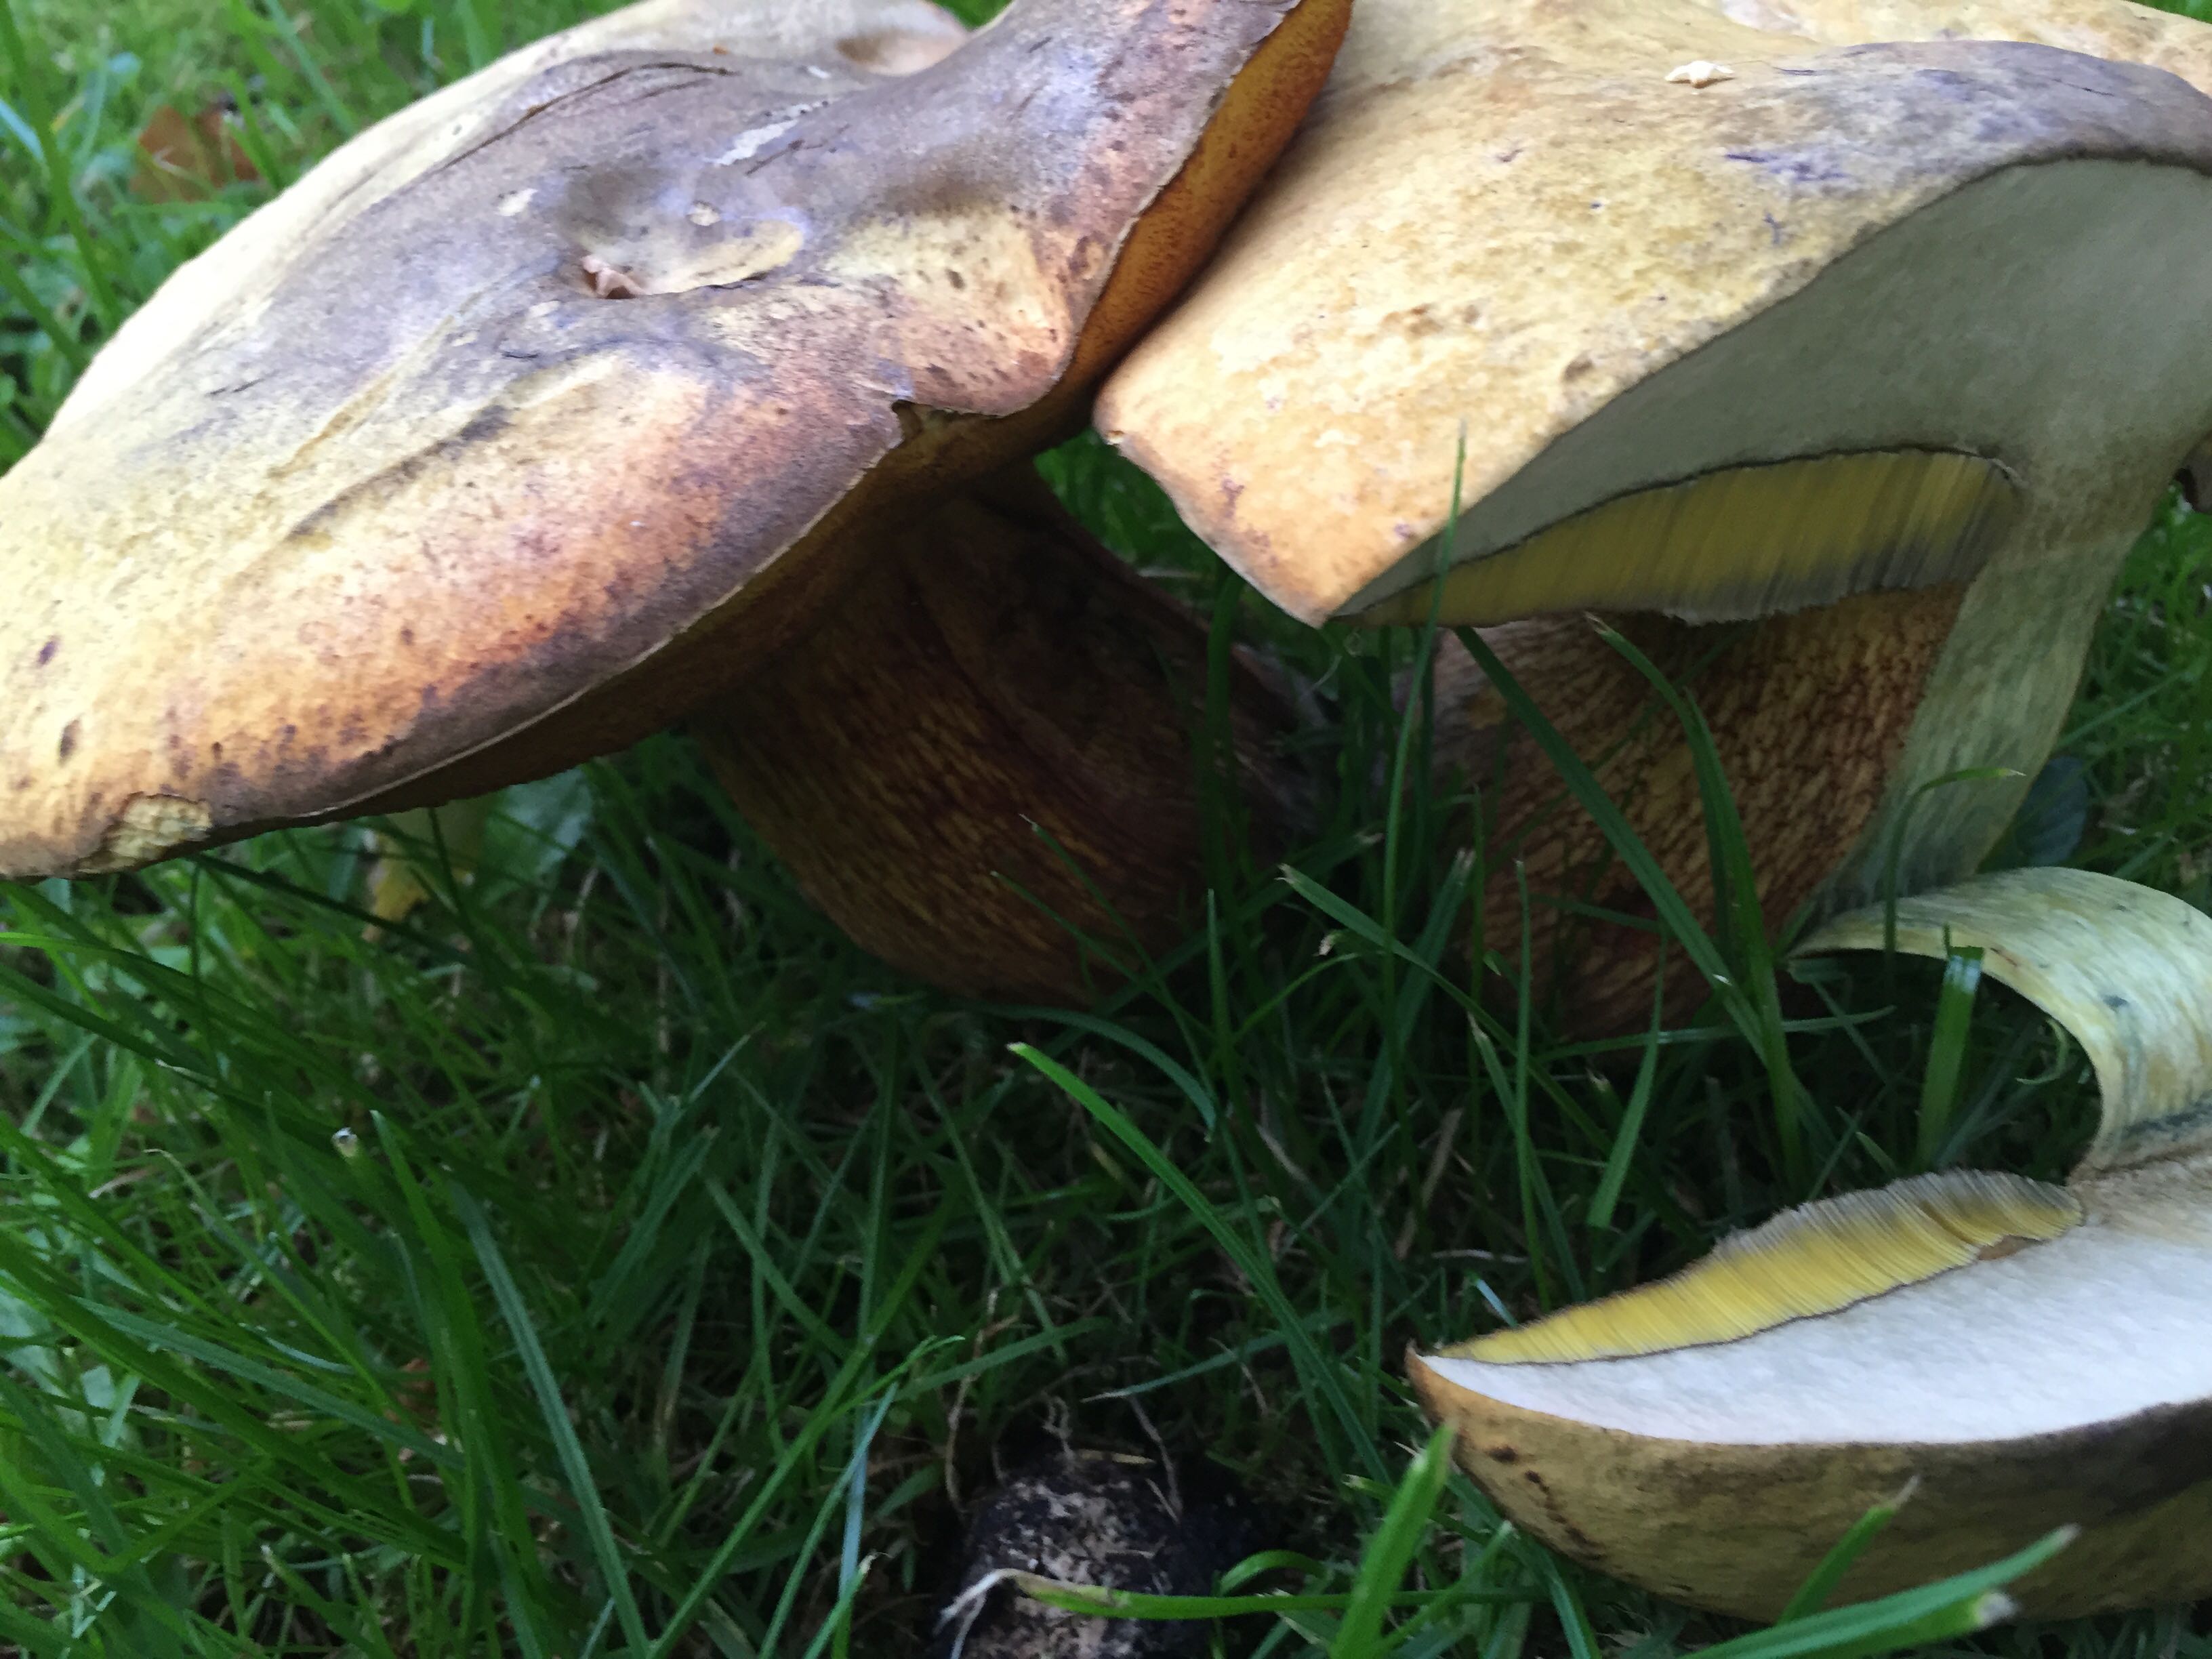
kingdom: Fungi
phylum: Basidiomycota
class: Agaricomycetes
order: Boletales
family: Boletaceae
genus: Suillellus
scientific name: Suillellus luridus
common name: netstokket indigorørhat
